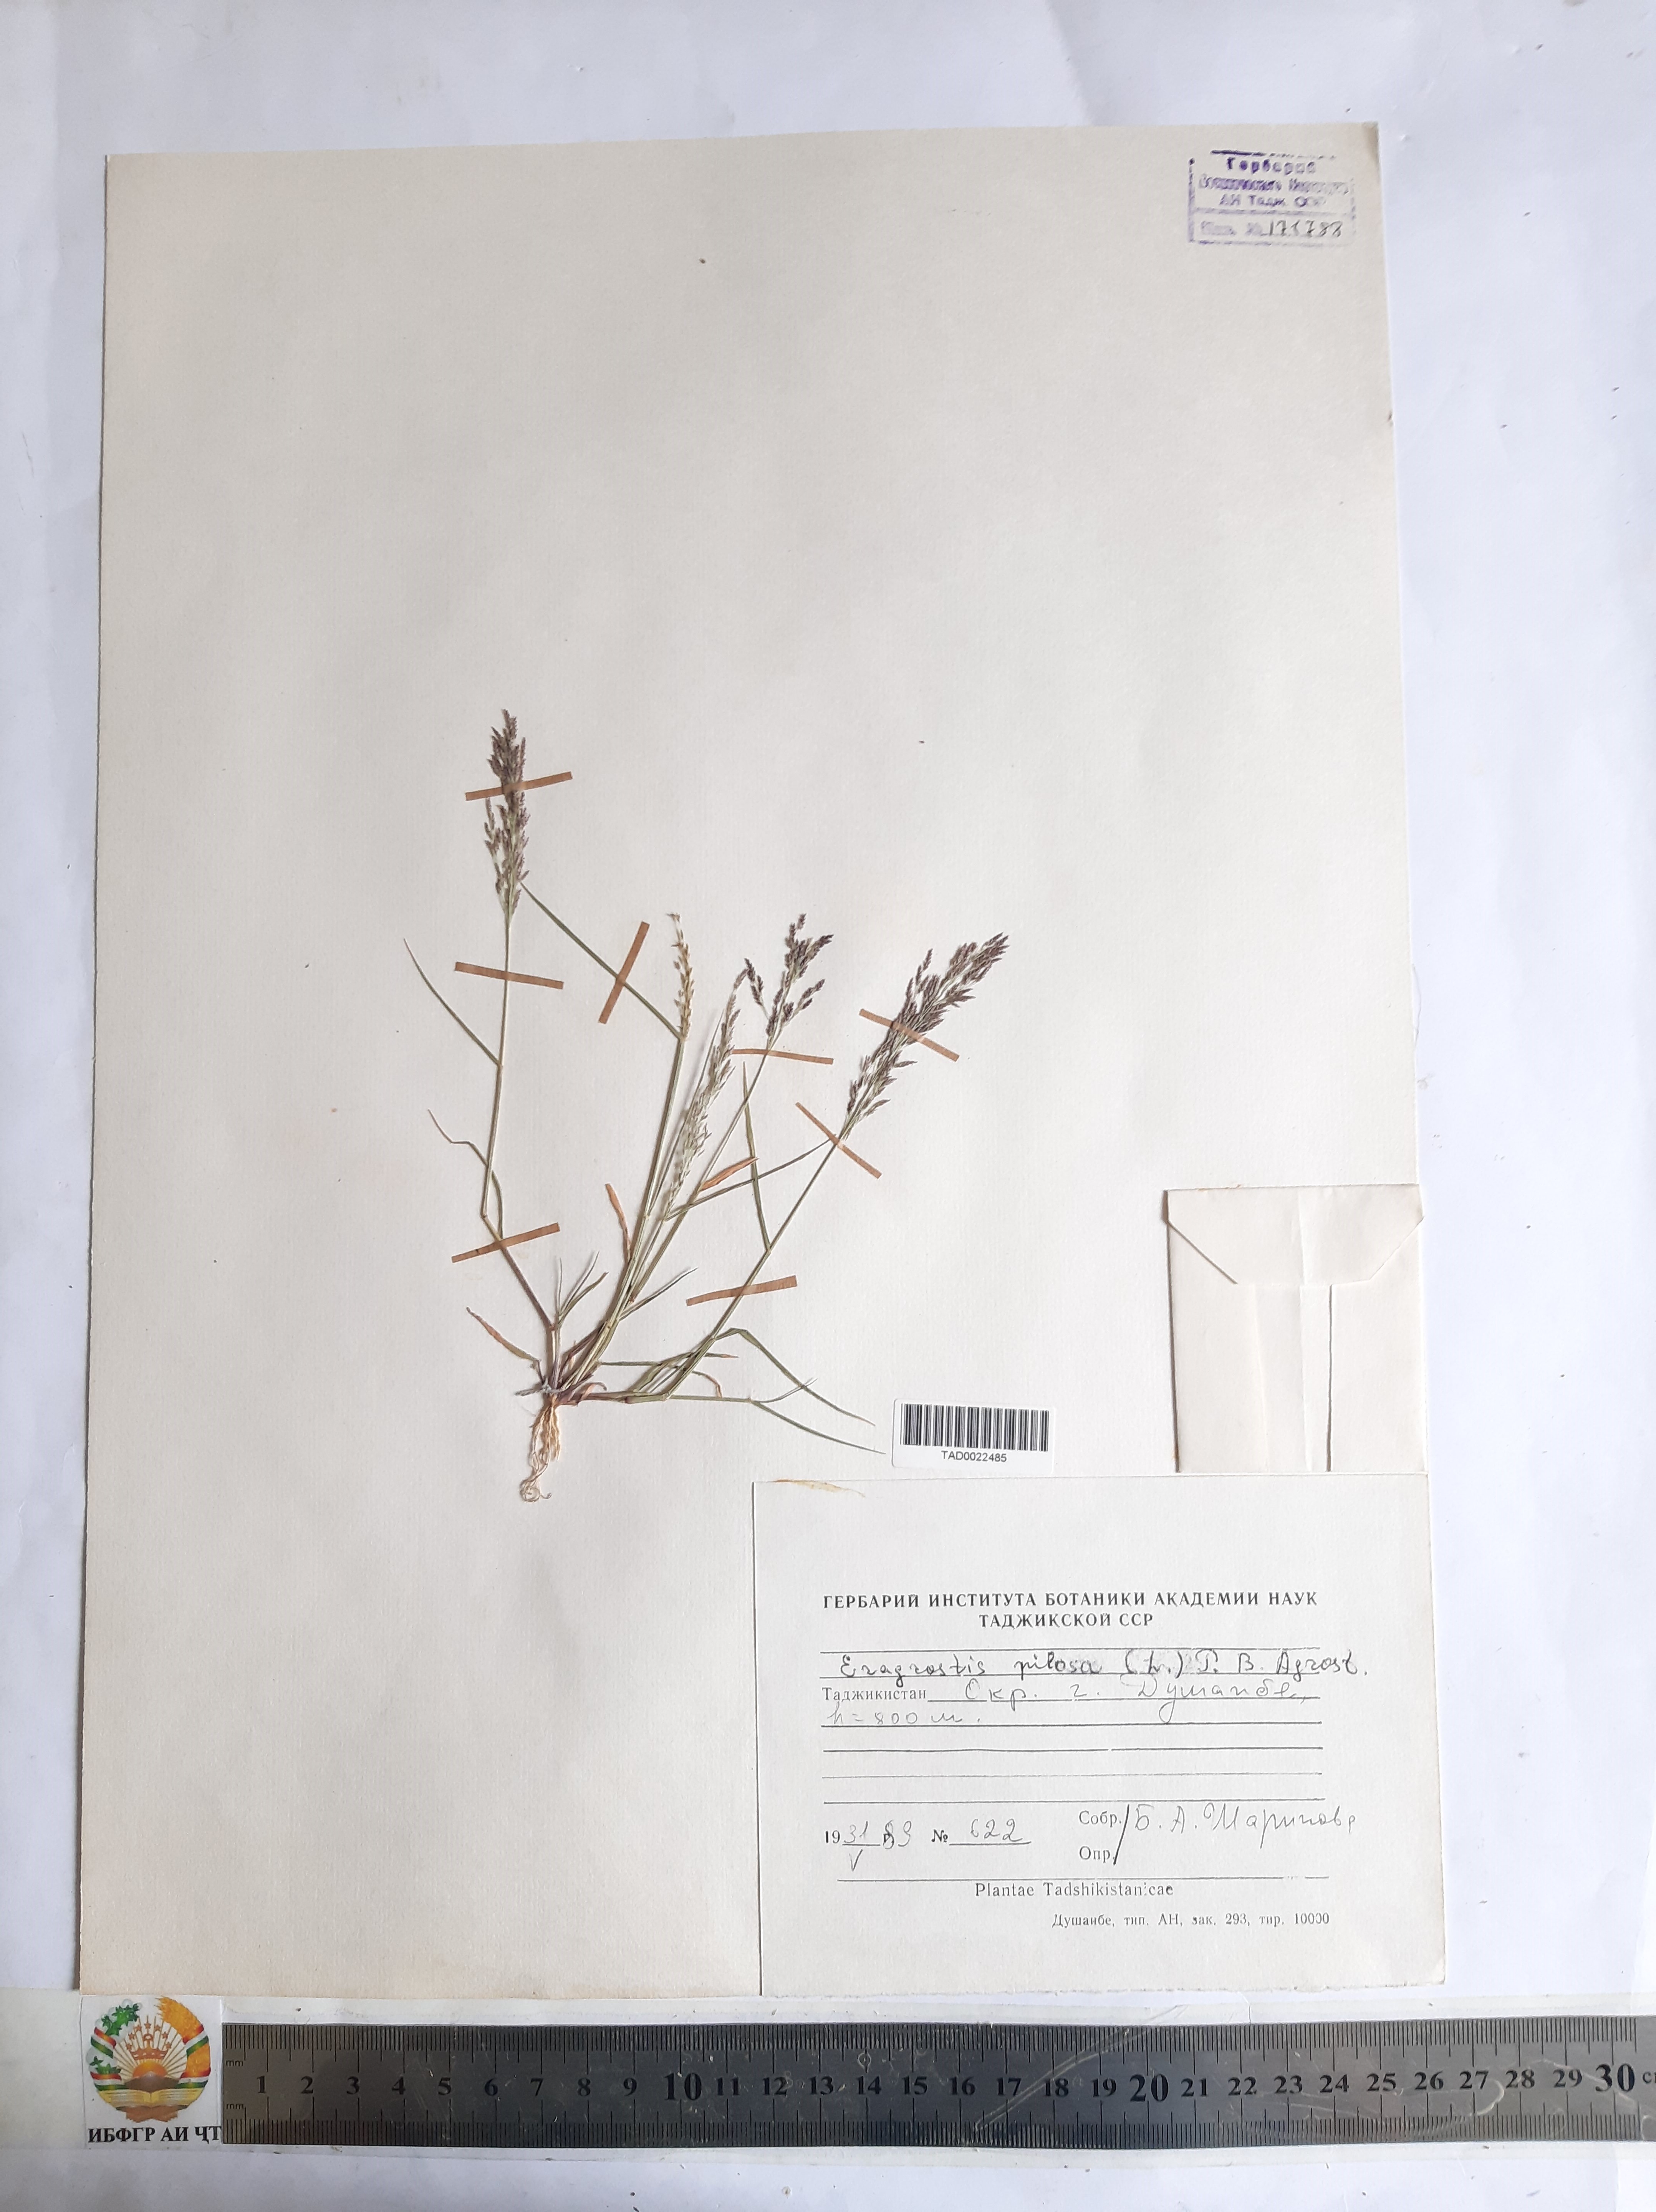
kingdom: Plantae
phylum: Tracheophyta
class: Liliopsida
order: Poales
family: Poaceae
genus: Eragrostis
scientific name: Eragrostis pilosa
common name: Indian lovegrass
